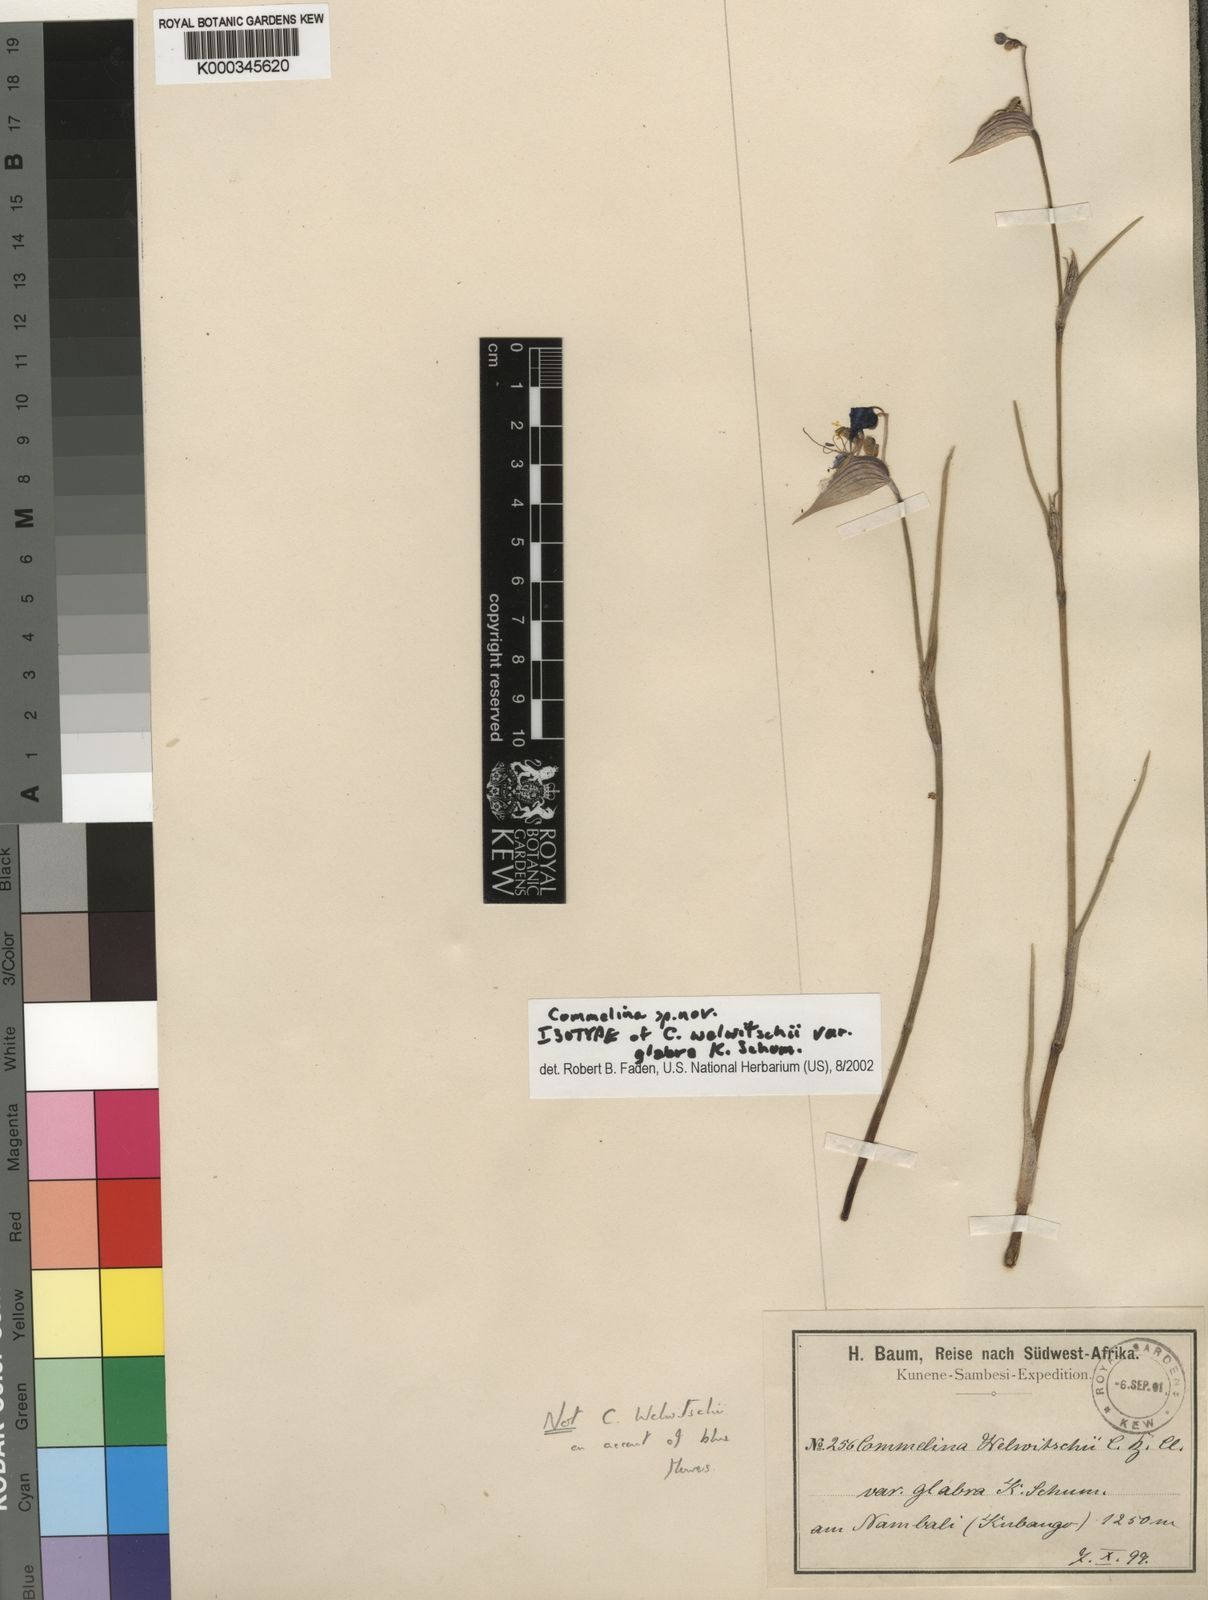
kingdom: Plantae
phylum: Tracheophyta
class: Liliopsida
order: Commelinales
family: Commelinaceae
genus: Commelina
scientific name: Commelina welwitschii
